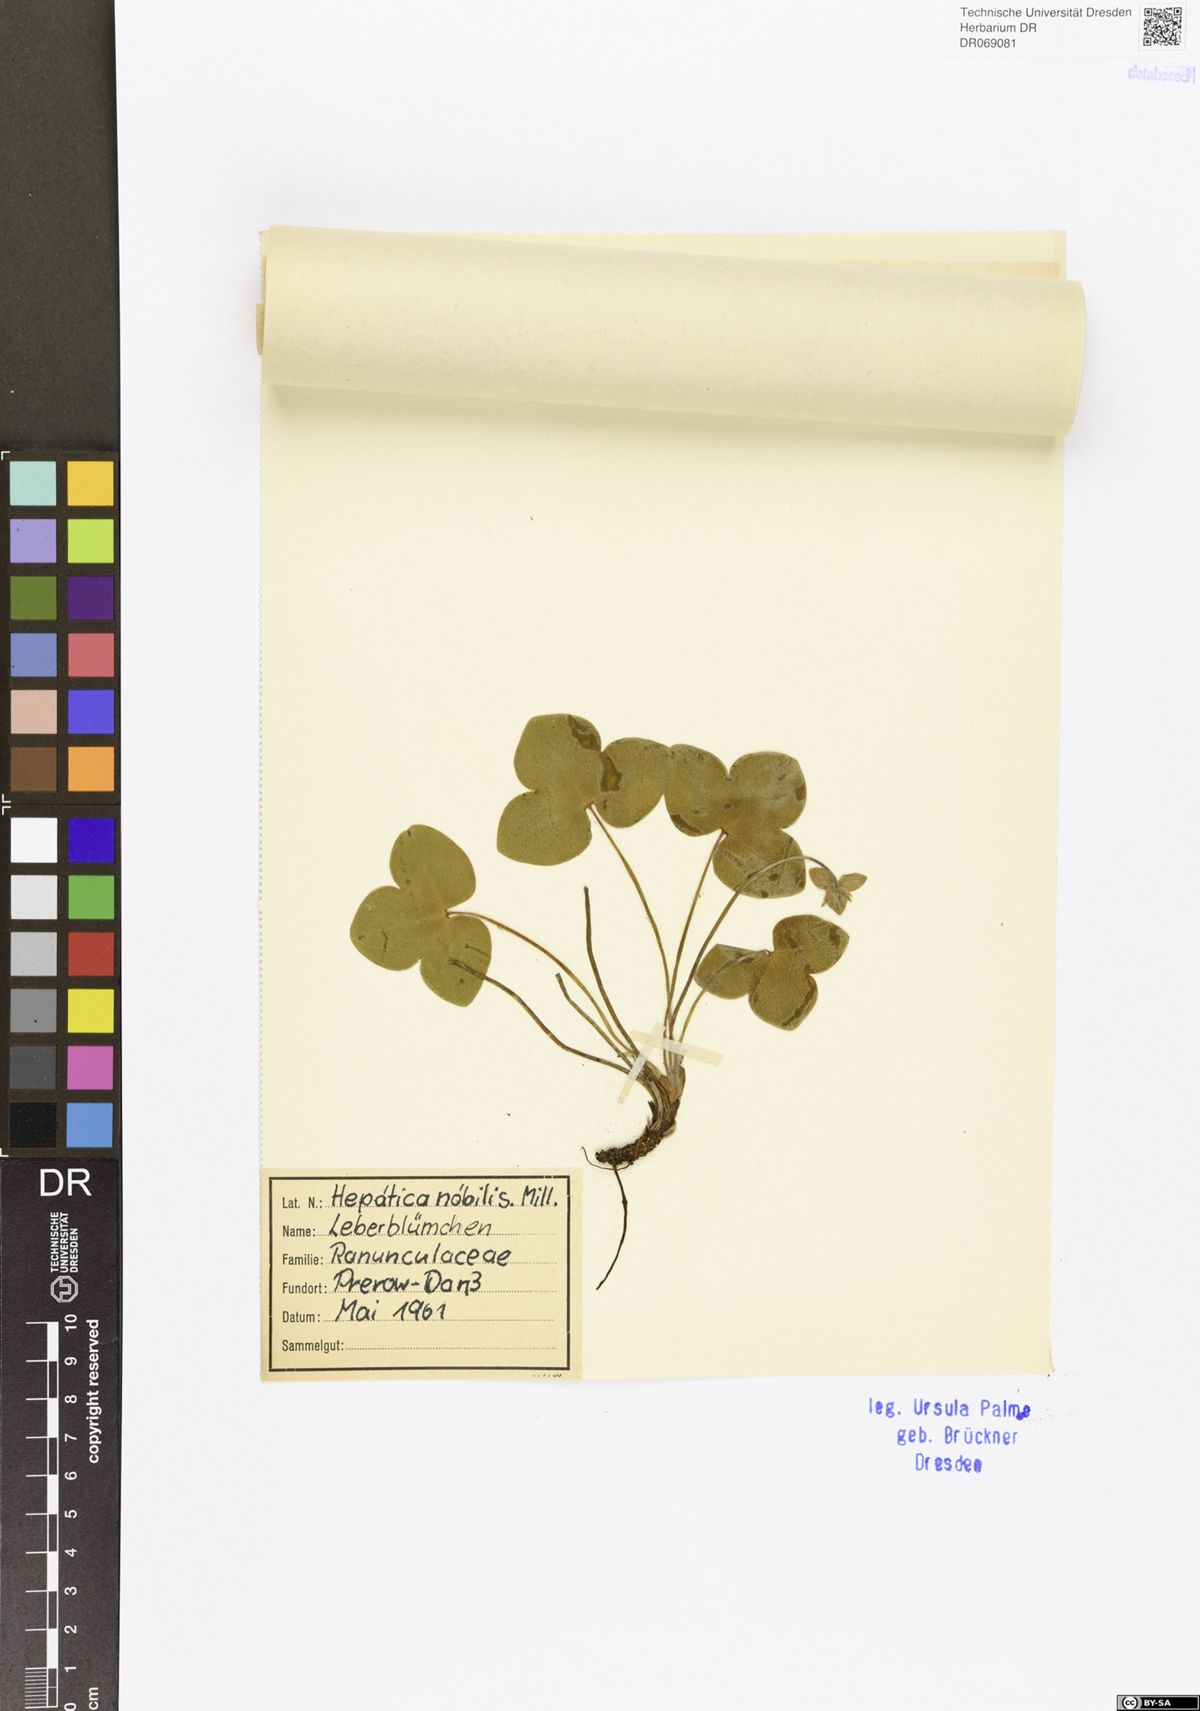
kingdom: Plantae
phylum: Tracheophyta
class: Magnoliopsida
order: Ranunculales
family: Ranunculaceae
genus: Hepatica
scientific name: Hepatica nobilis
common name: Liverleaf
